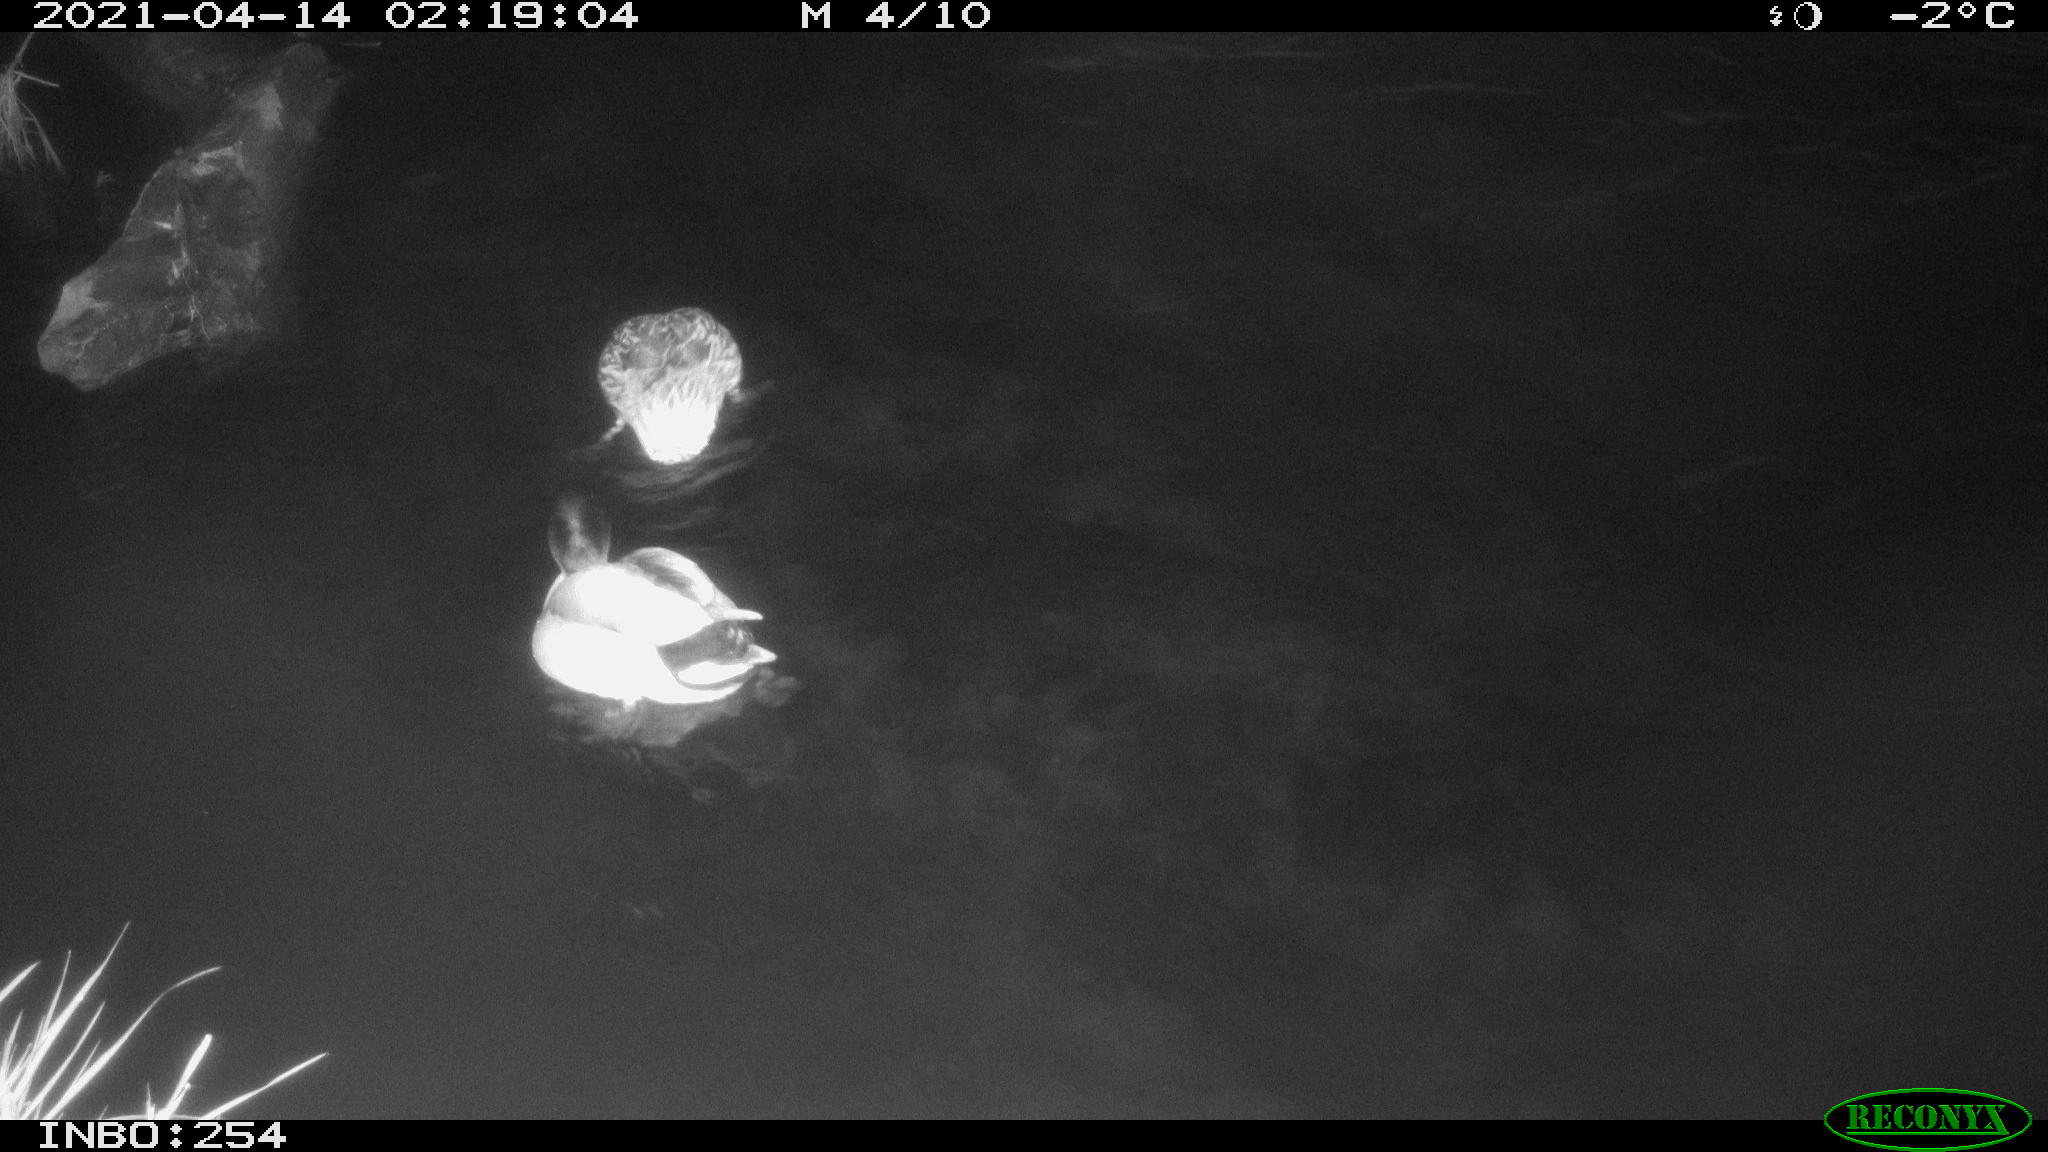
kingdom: Animalia
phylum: Chordata
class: Aves
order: Anseriformes
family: Anatidae
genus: Anas
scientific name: Anas
